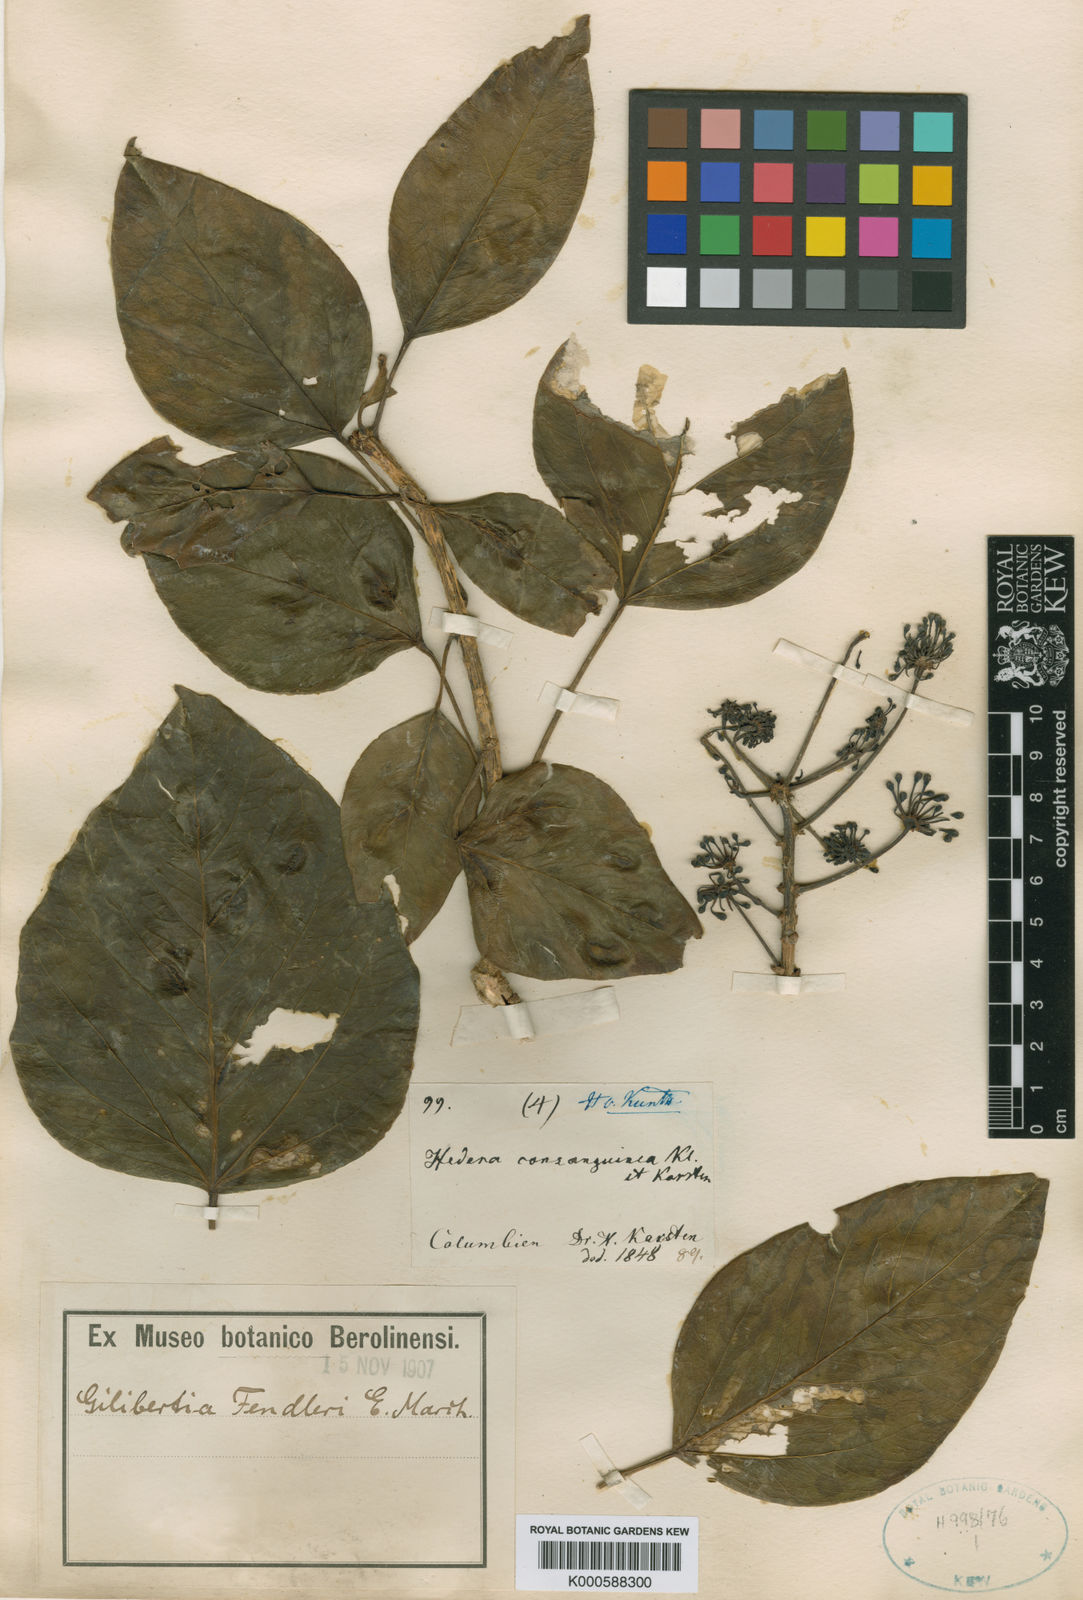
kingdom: Plantae
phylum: Tracheophyta
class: Magnoliopsida
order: Apiales
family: Araliaceae
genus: Dendropanax
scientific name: Dendropanax fendleri
